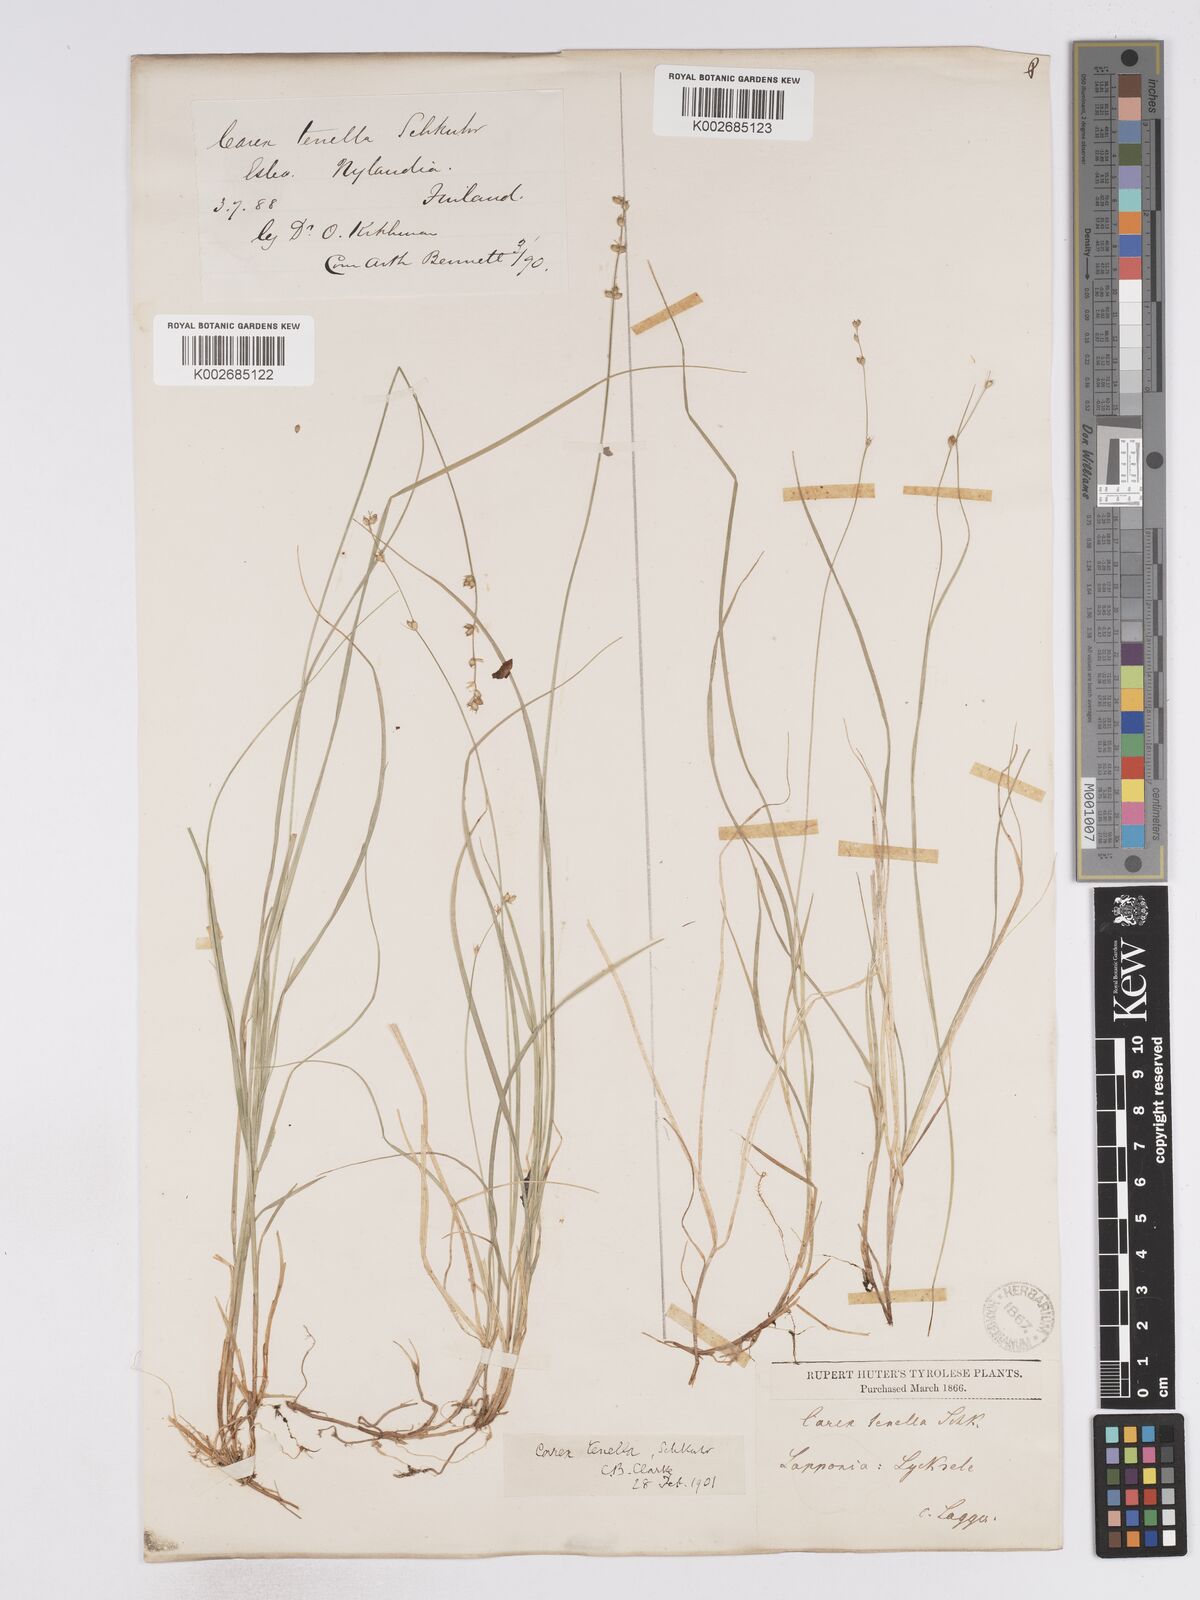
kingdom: Plantae
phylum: Tracheophyta
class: Liliopsida
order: Poales
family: Cyperaceae
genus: Carex
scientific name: Carex disperma
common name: Short-leaved sedge
